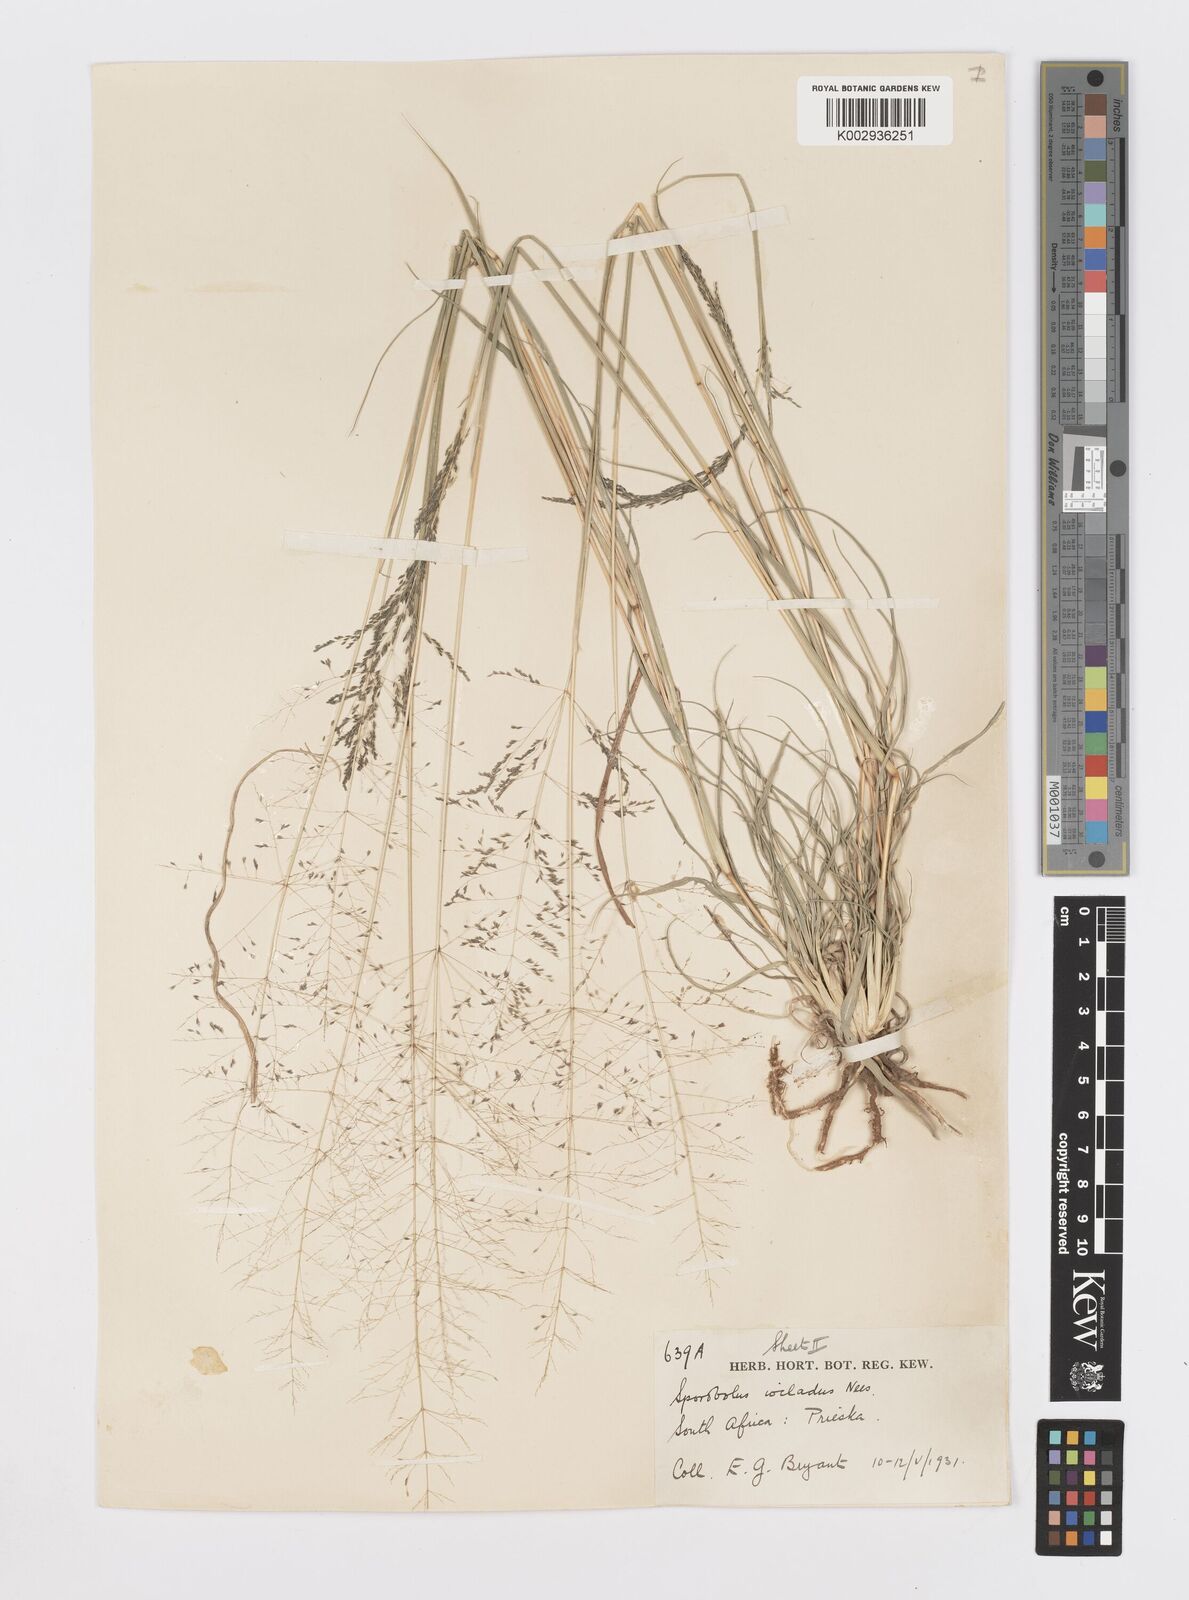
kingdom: Plantae
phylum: Tracheophyta
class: Liliopsida
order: Poales
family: Poaceae
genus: Sporobolus
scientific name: Sporobolus ioclados
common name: Pan dropseed
